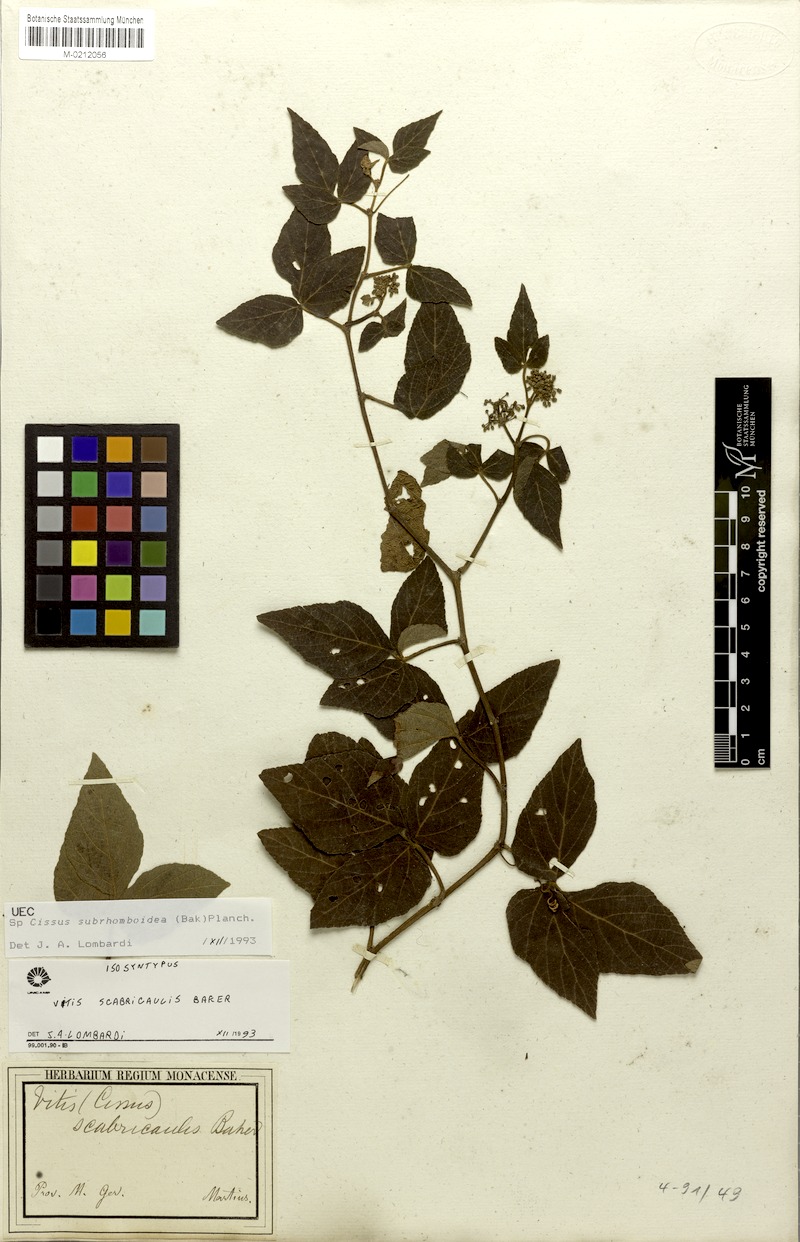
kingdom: Plantae
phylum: Tracheophyta
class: Magnoliopsida
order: Vitales
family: Vitaceae
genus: Cissus
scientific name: Cissus subrhomboidea
